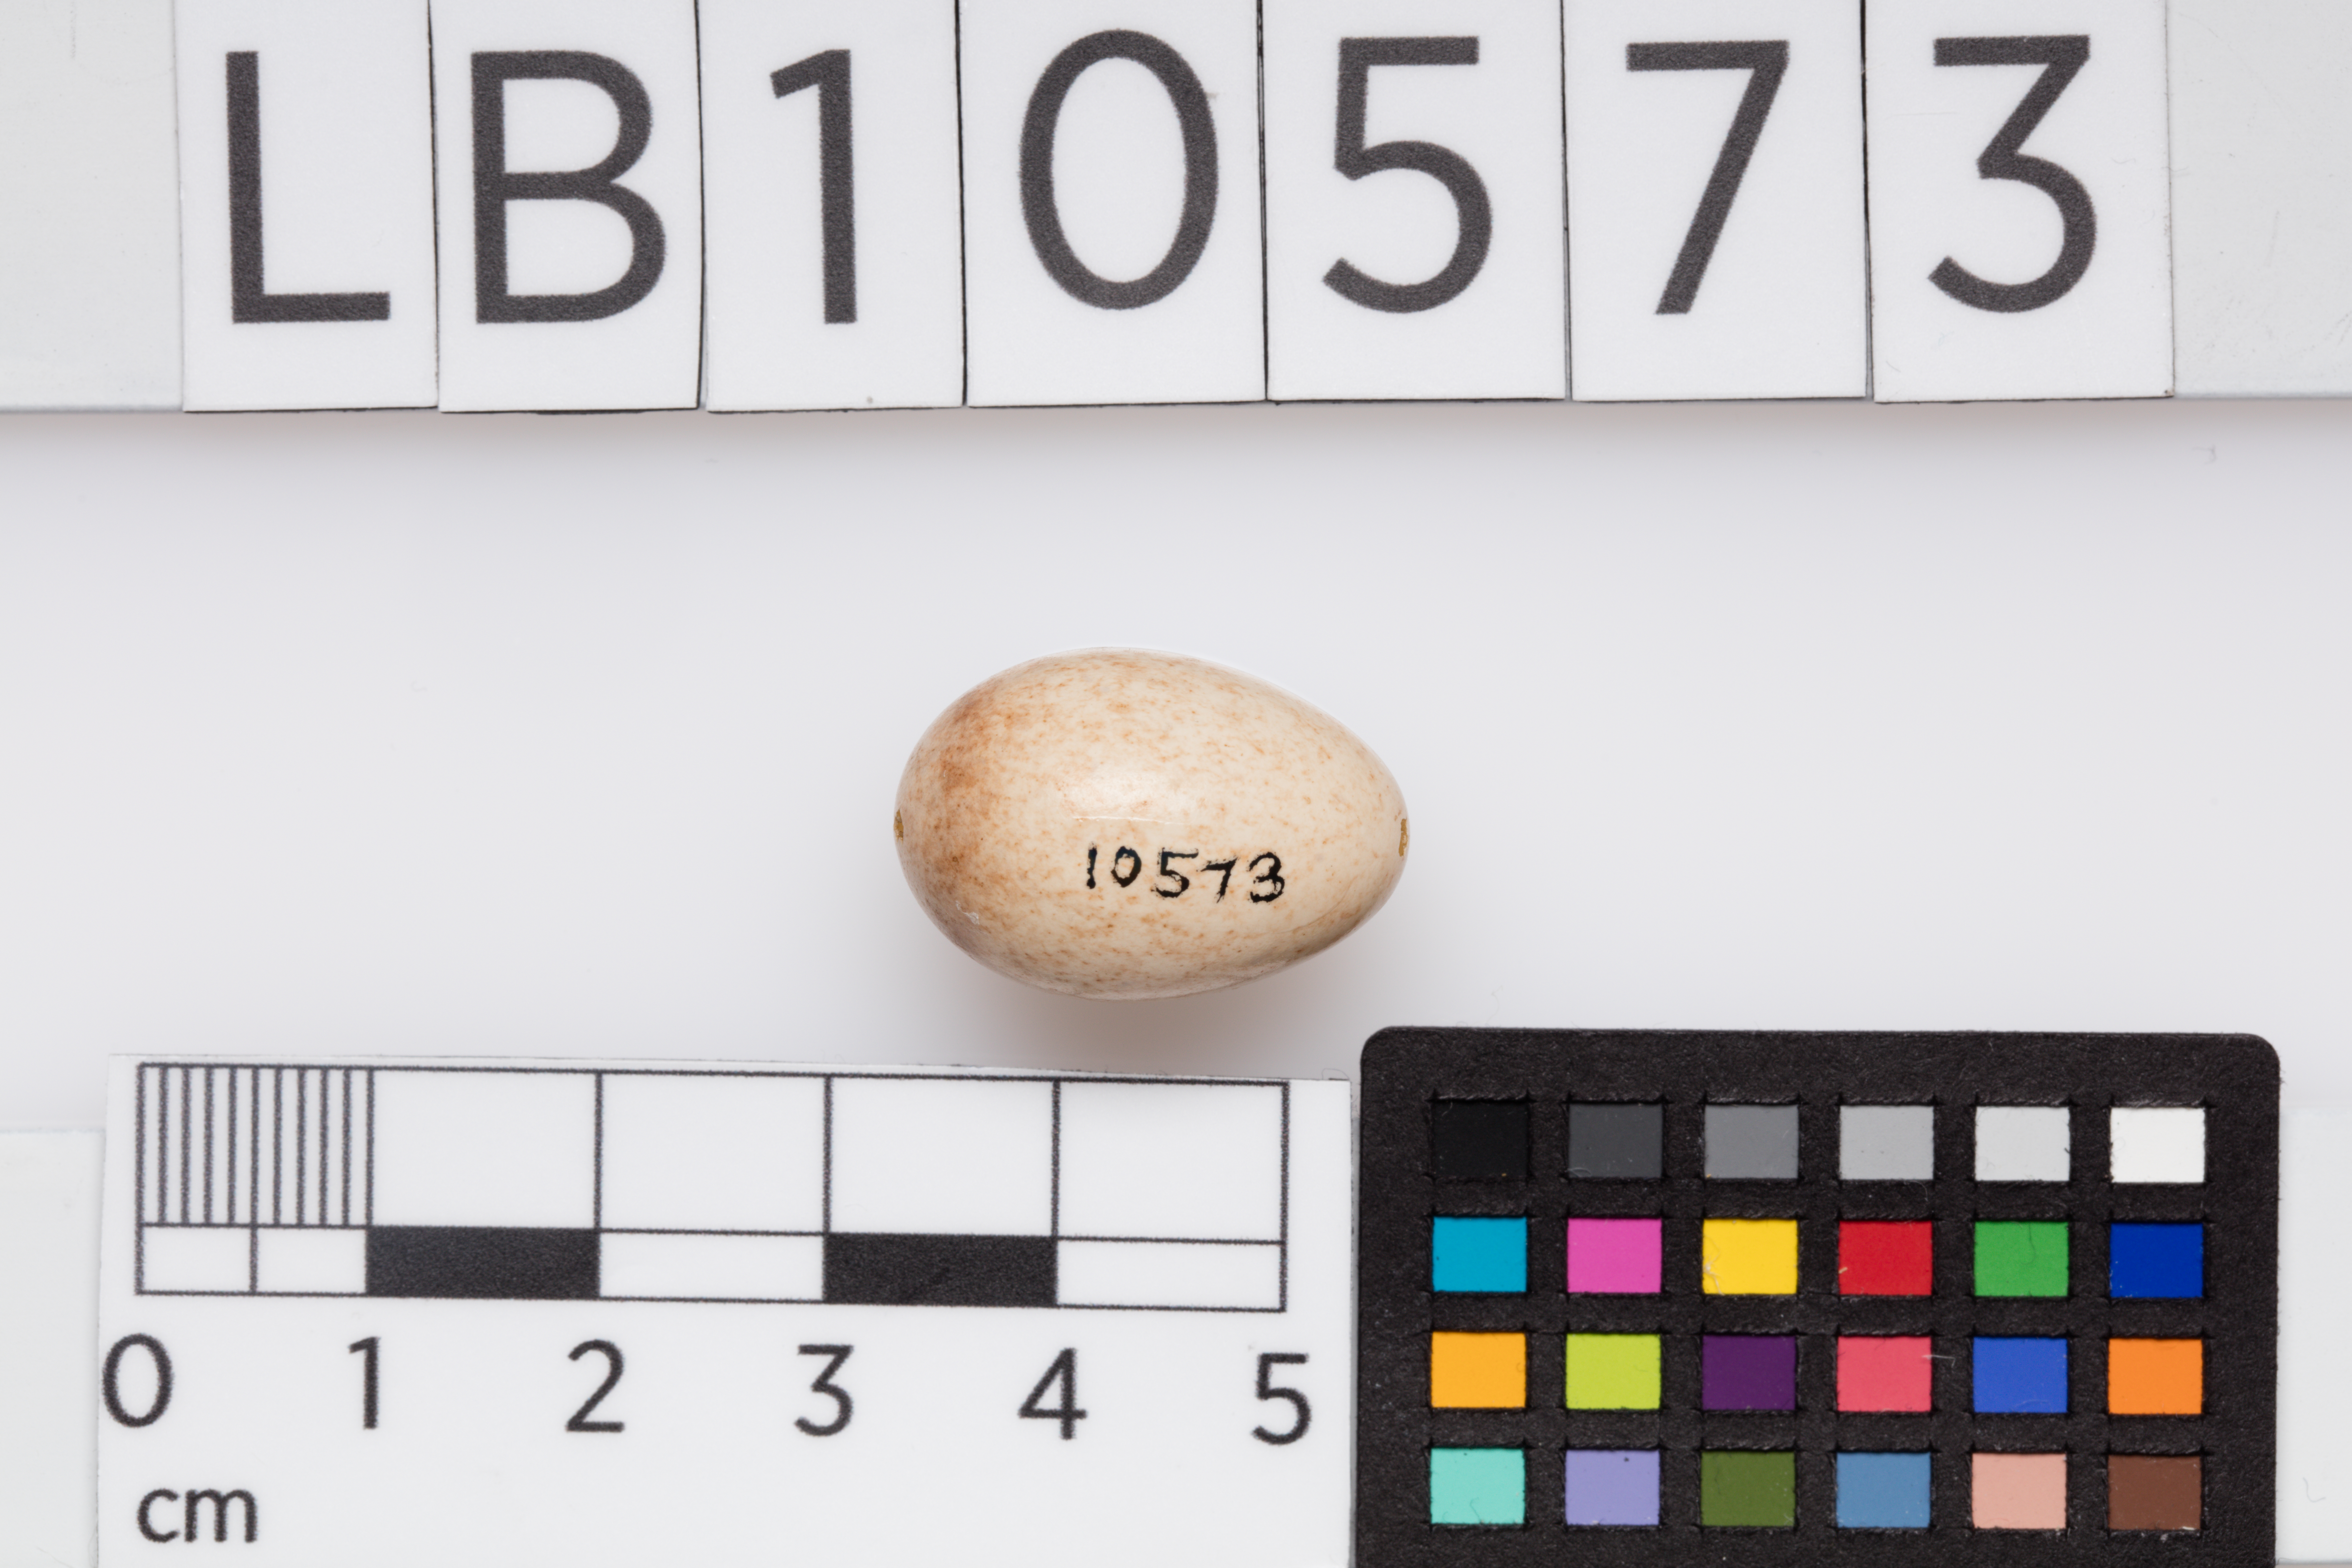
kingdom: Animalia
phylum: Chordata
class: Aves
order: Passeriformes
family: Muscicapidae
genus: Erithacus
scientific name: Erithacus rubecula
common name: European robin
